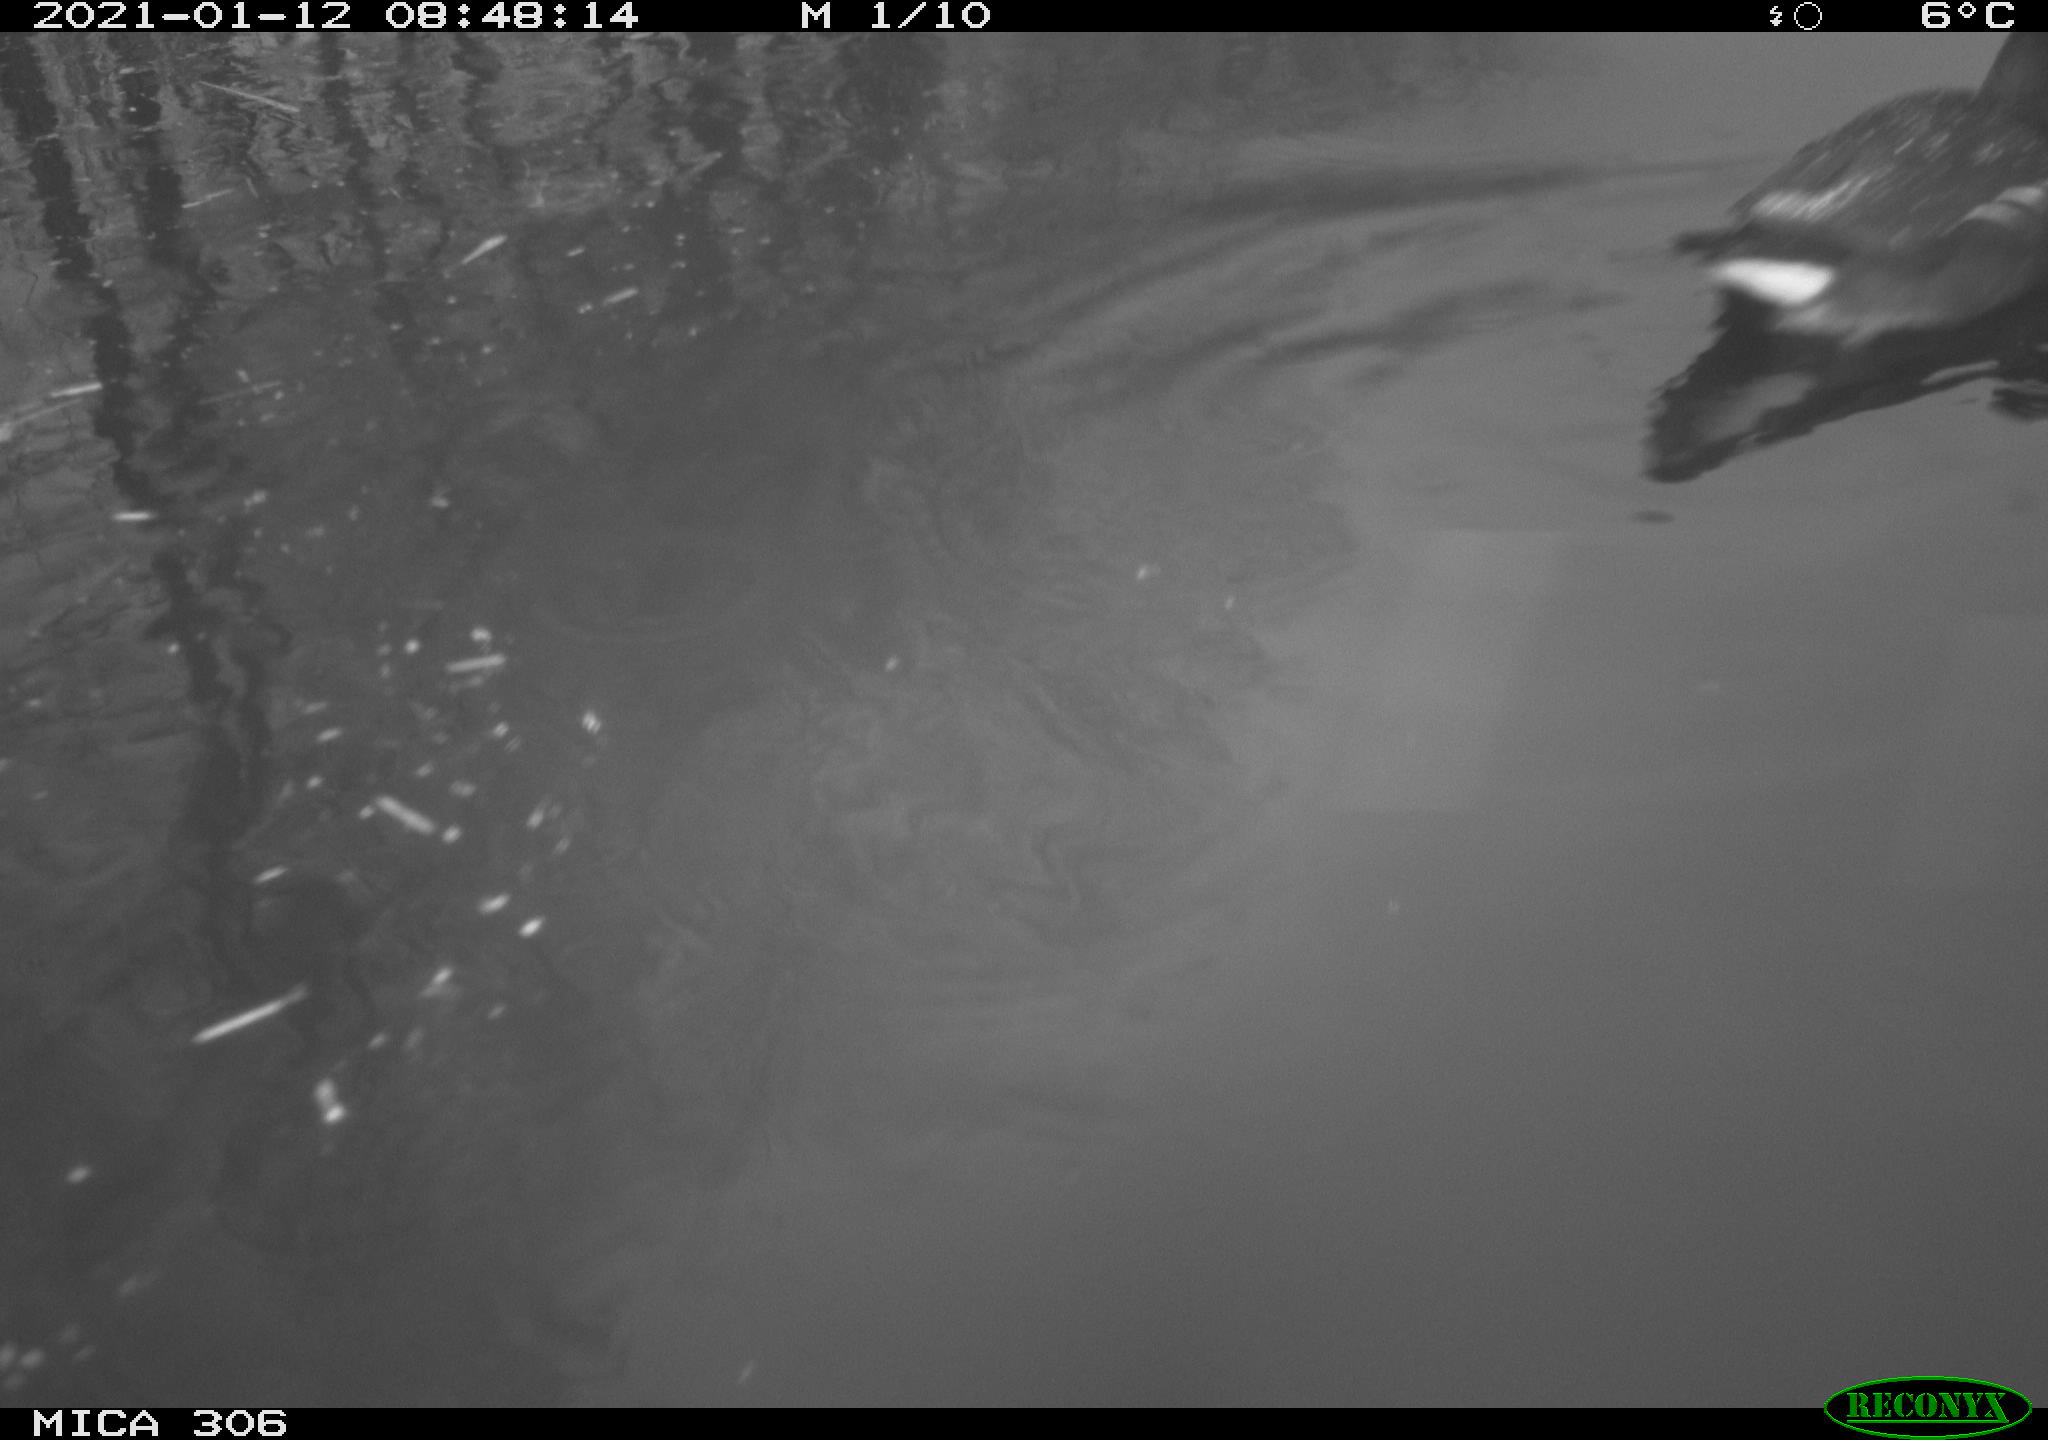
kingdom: Animalia
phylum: Chordata
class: Aves
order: Gruiformes
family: Rallidae
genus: Gallinula
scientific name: Gallinula chloropus
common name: Common moorhen
